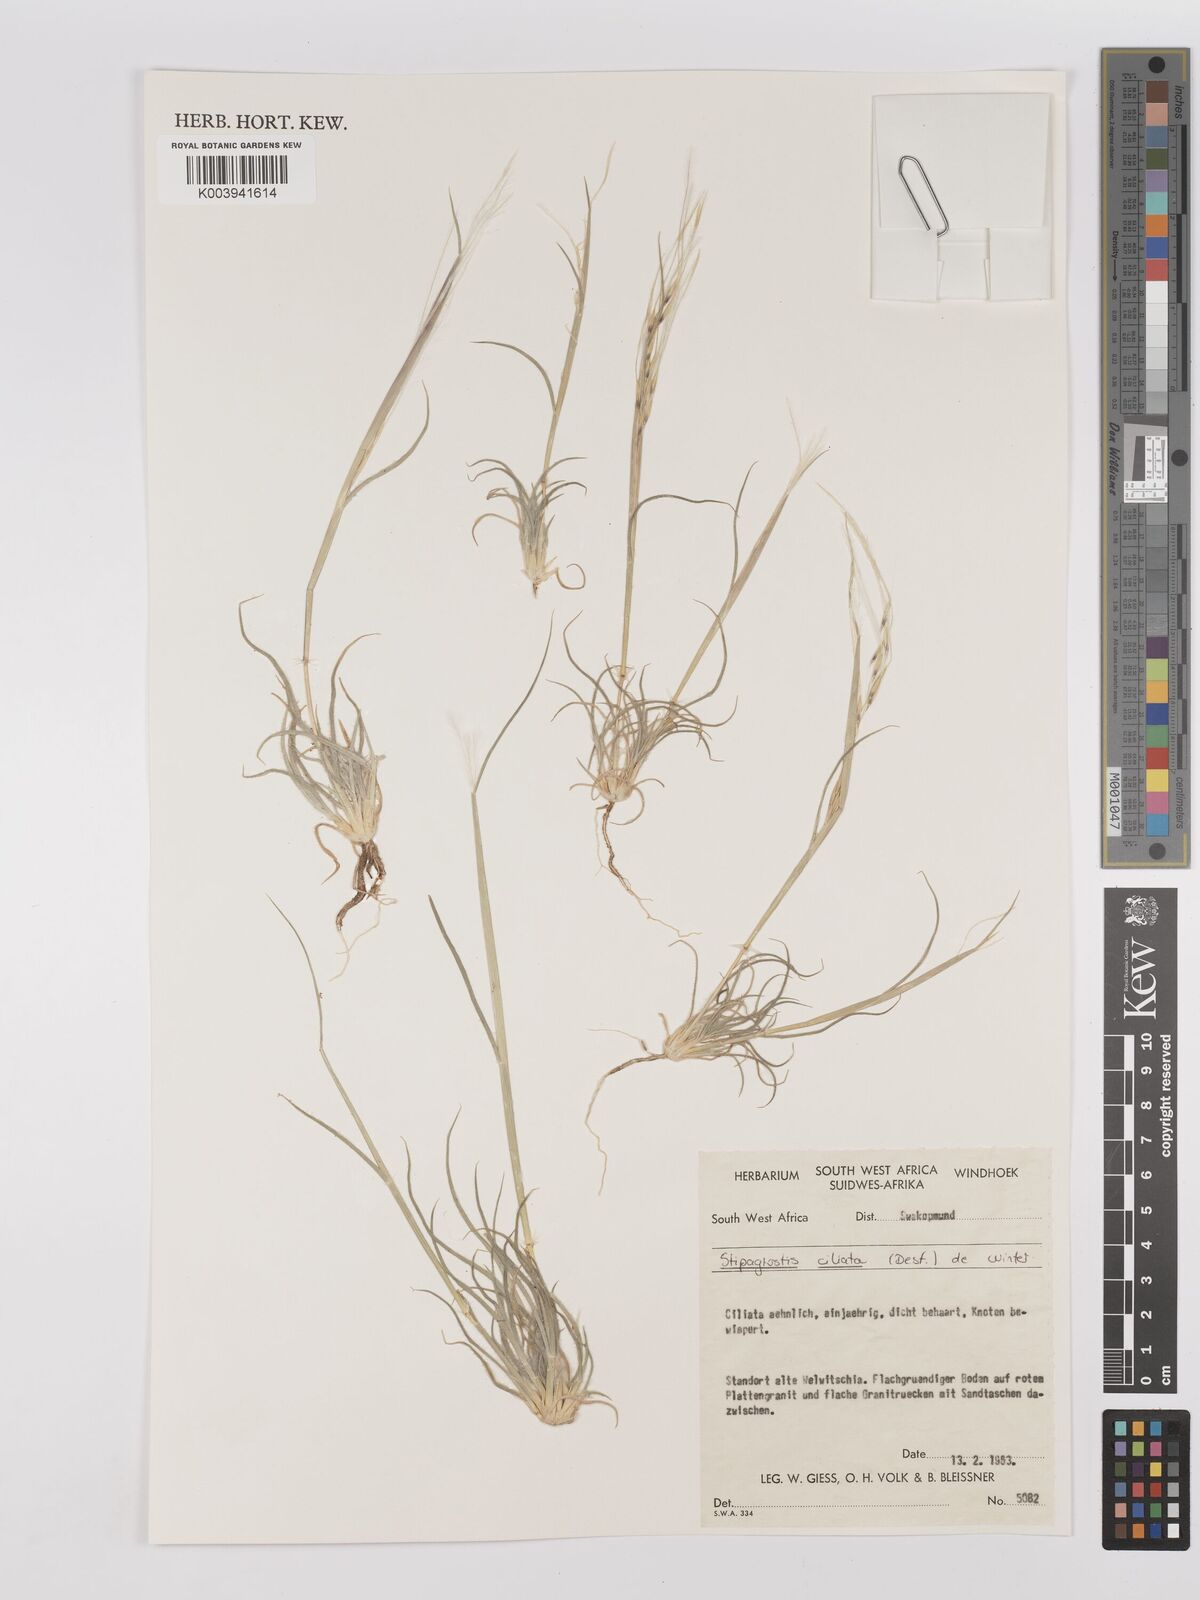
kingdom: Plantae
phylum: Tracheophyta
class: Liliopsida
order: Poales
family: Poaceae
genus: Stipagrostis
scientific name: Stipagrostis ciliata
